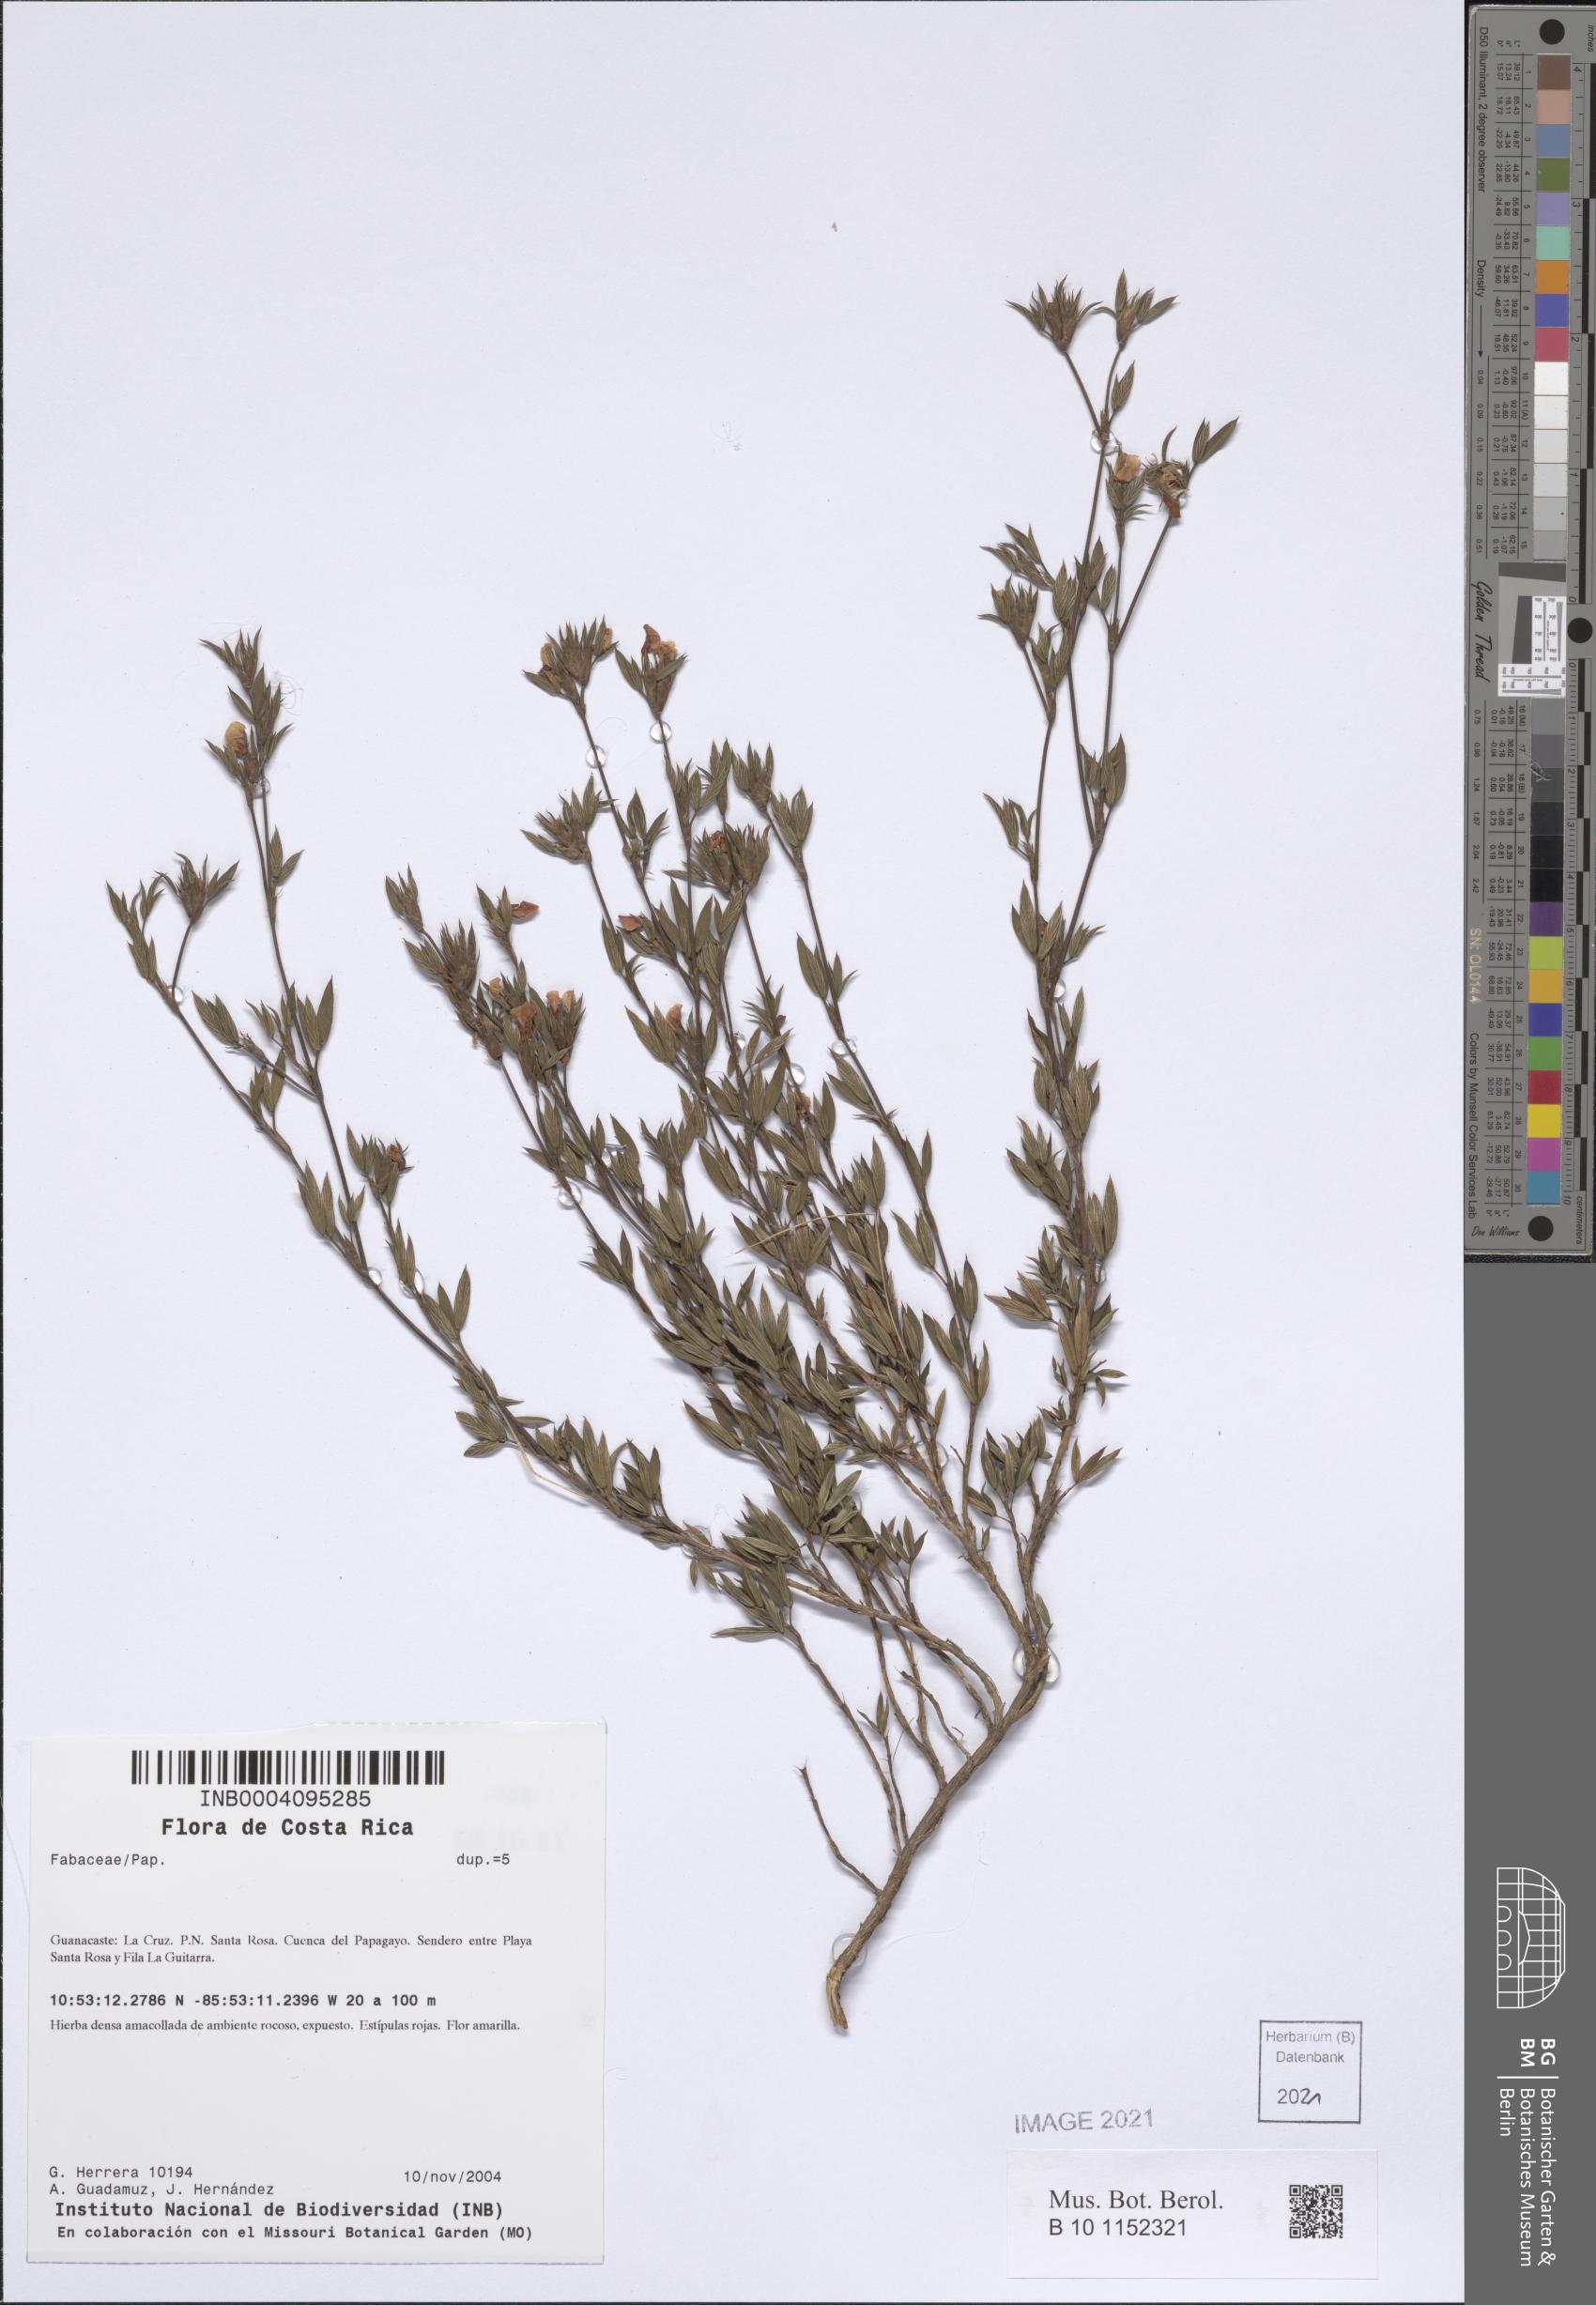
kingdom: Plantae
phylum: Tracheophyta
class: Magnoliopsida
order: Fabales
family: Fabaceae
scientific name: Fabaceae
